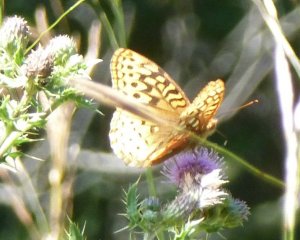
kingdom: Animalia
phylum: Arthropoda
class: Insecta
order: Lepidoptera
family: Nymphalidae
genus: Speyeria
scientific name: Speyeria cybele
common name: Great Spangled Fritillary
